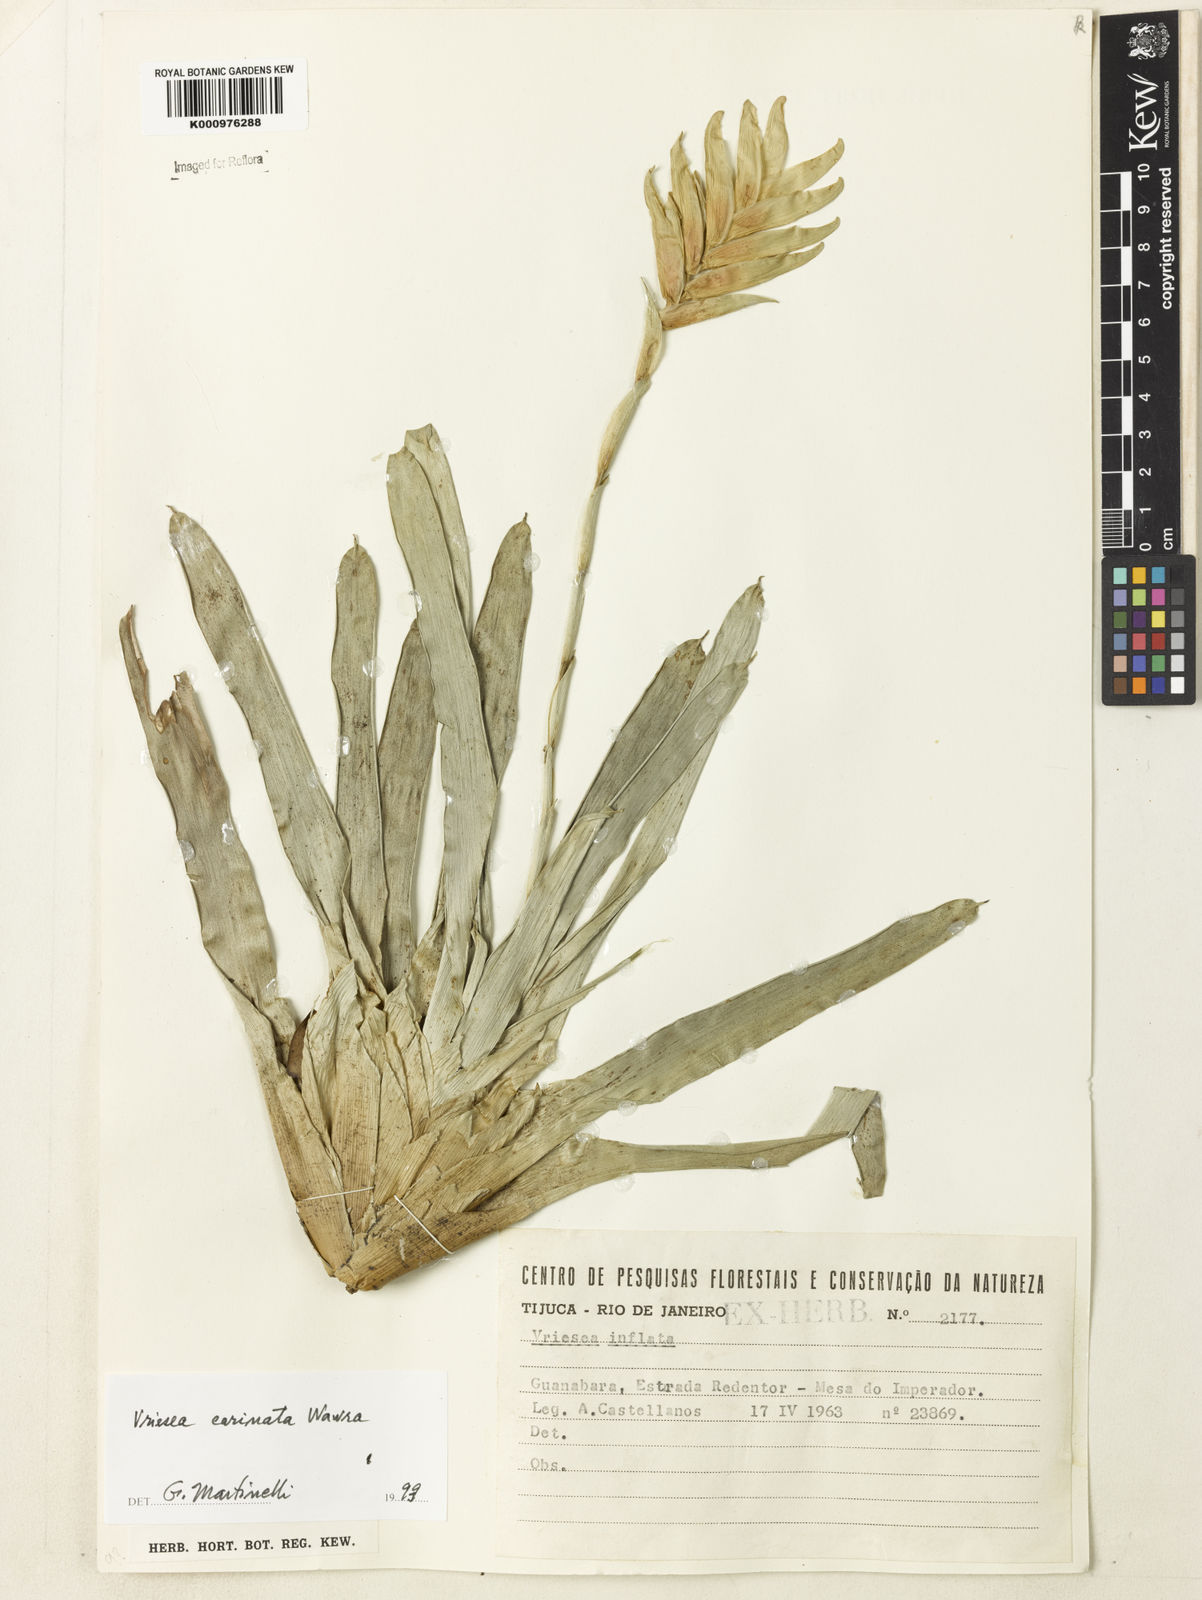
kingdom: Plantae
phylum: Tracheophyta
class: Liliopsida
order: Poales
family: Bromeliaceae
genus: Vriesea
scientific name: Vriesea carinata
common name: Lobster-claws
